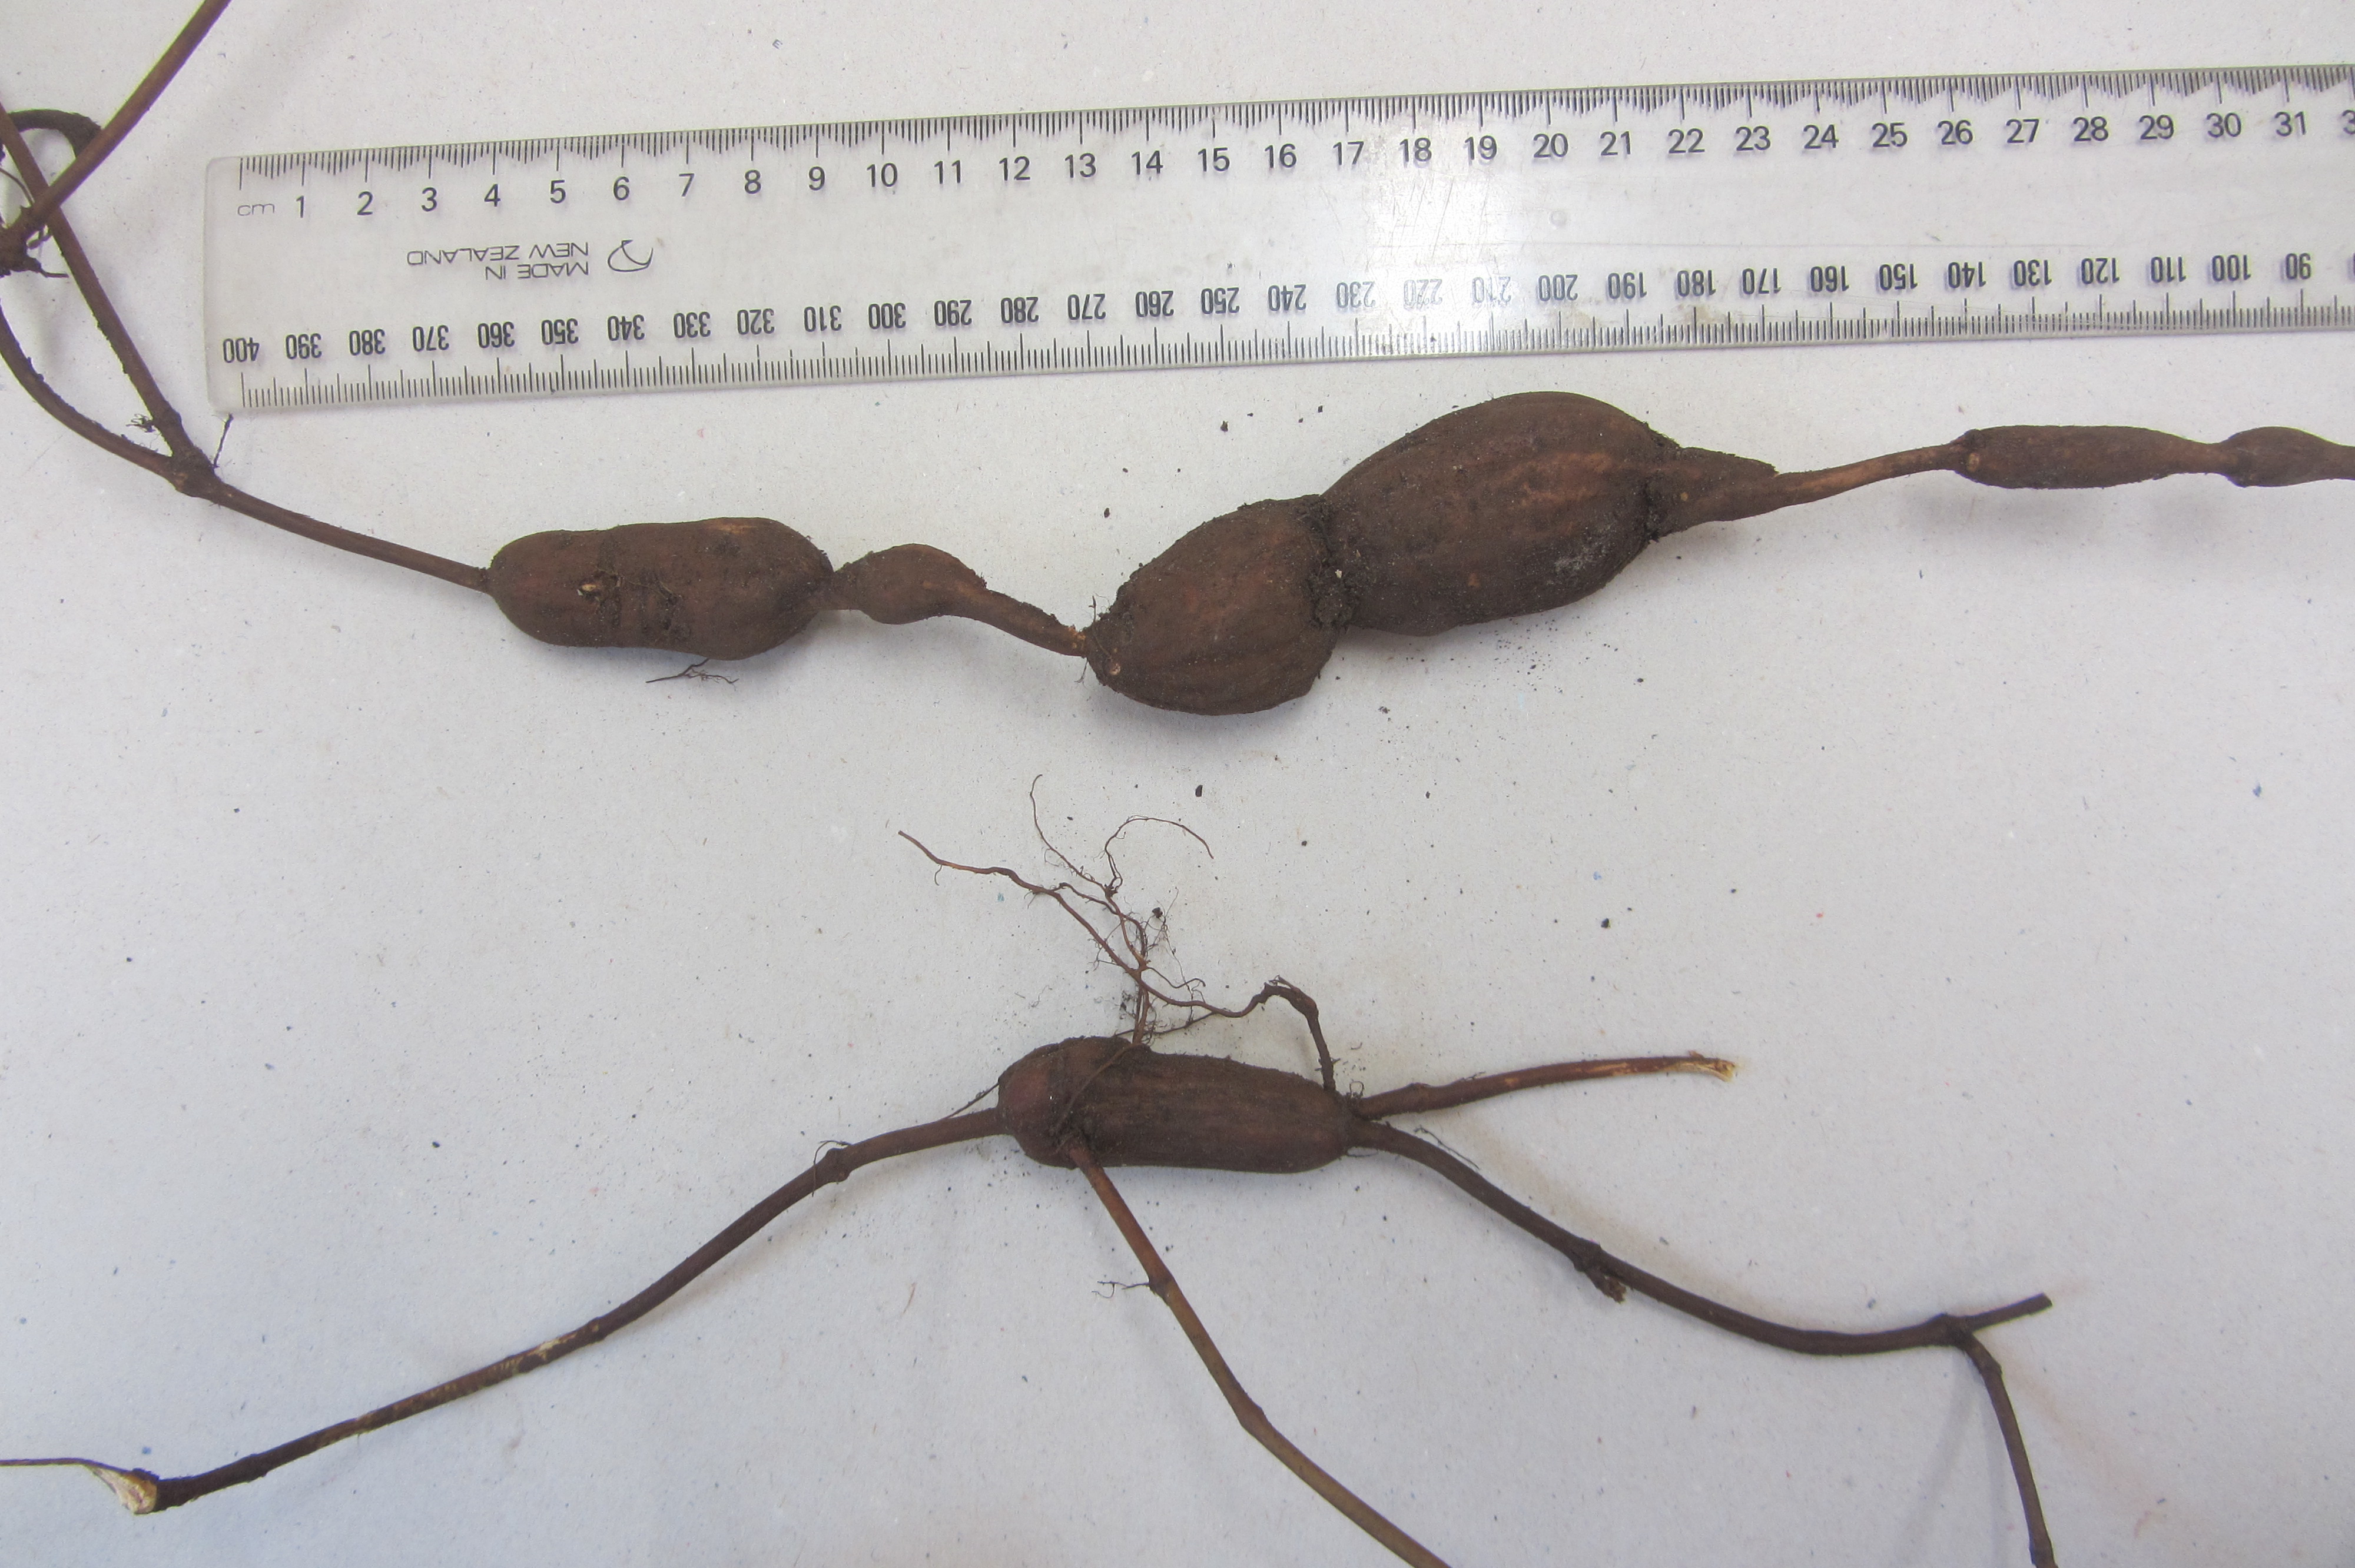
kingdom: Plantae
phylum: Tracheophyta
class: Magnoliopsida
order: Caryophyllales
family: Polygonaceae
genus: Reynoutria
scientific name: Reynoutria multiflora
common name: Chinese fleeceflower
